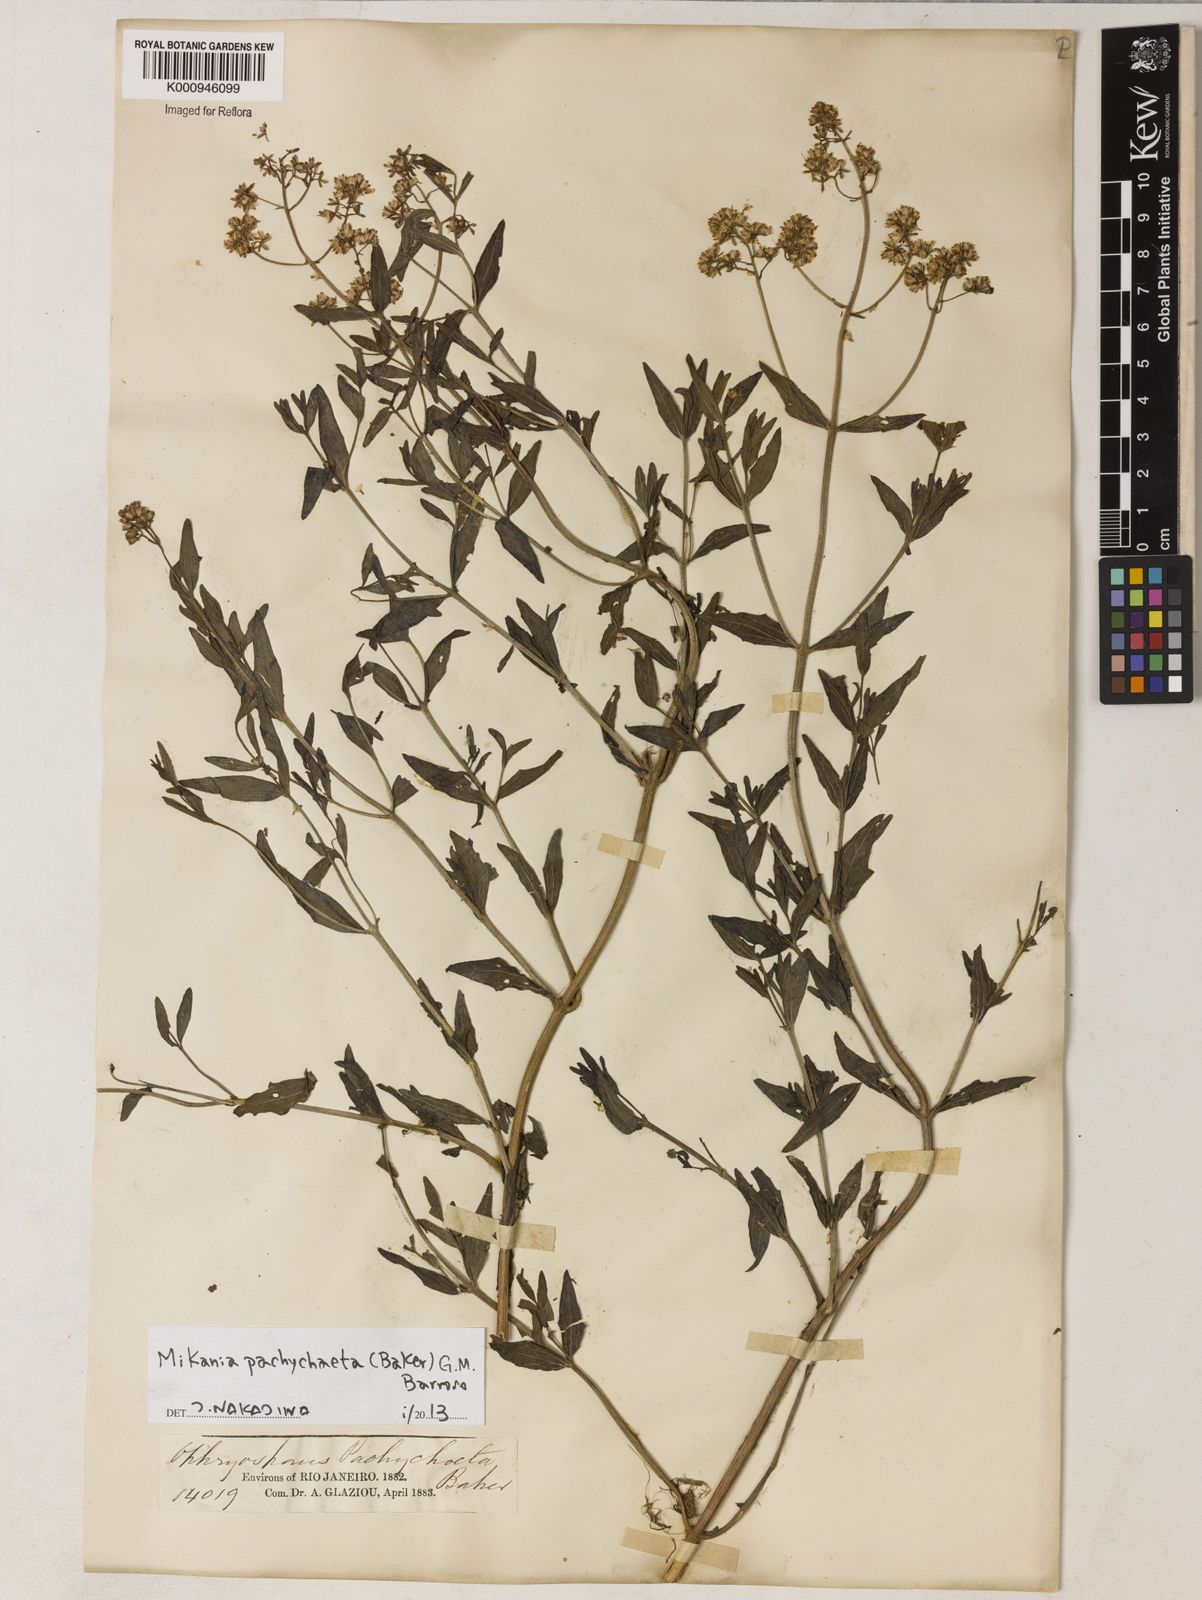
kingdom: Plantae
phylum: Tracheophyta
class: Magnoliopsida
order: Asterales
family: Asteraceae
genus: Mikania
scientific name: Mikania pachychaeta
